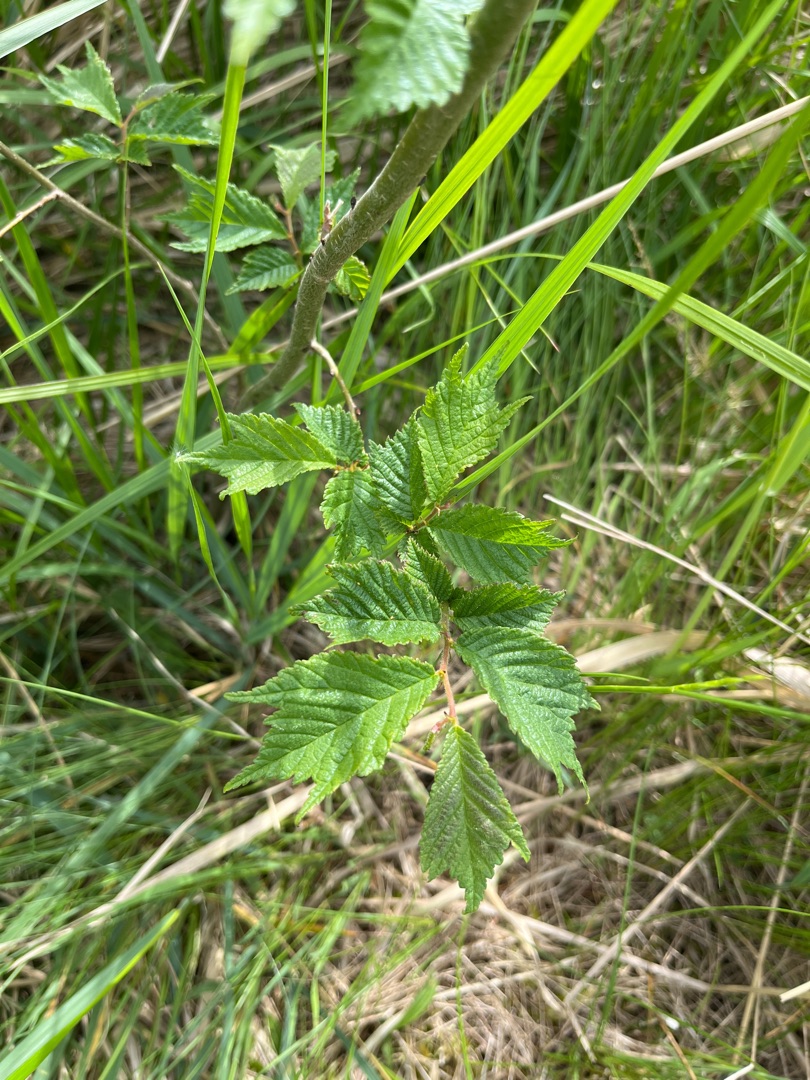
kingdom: Plantae
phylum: Tracheophyta
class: Magnoliopsida
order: Rosales
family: Ulmaceae
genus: Ulmus
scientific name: Ulmus glabra
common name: Skov-elm/storbladet elm
